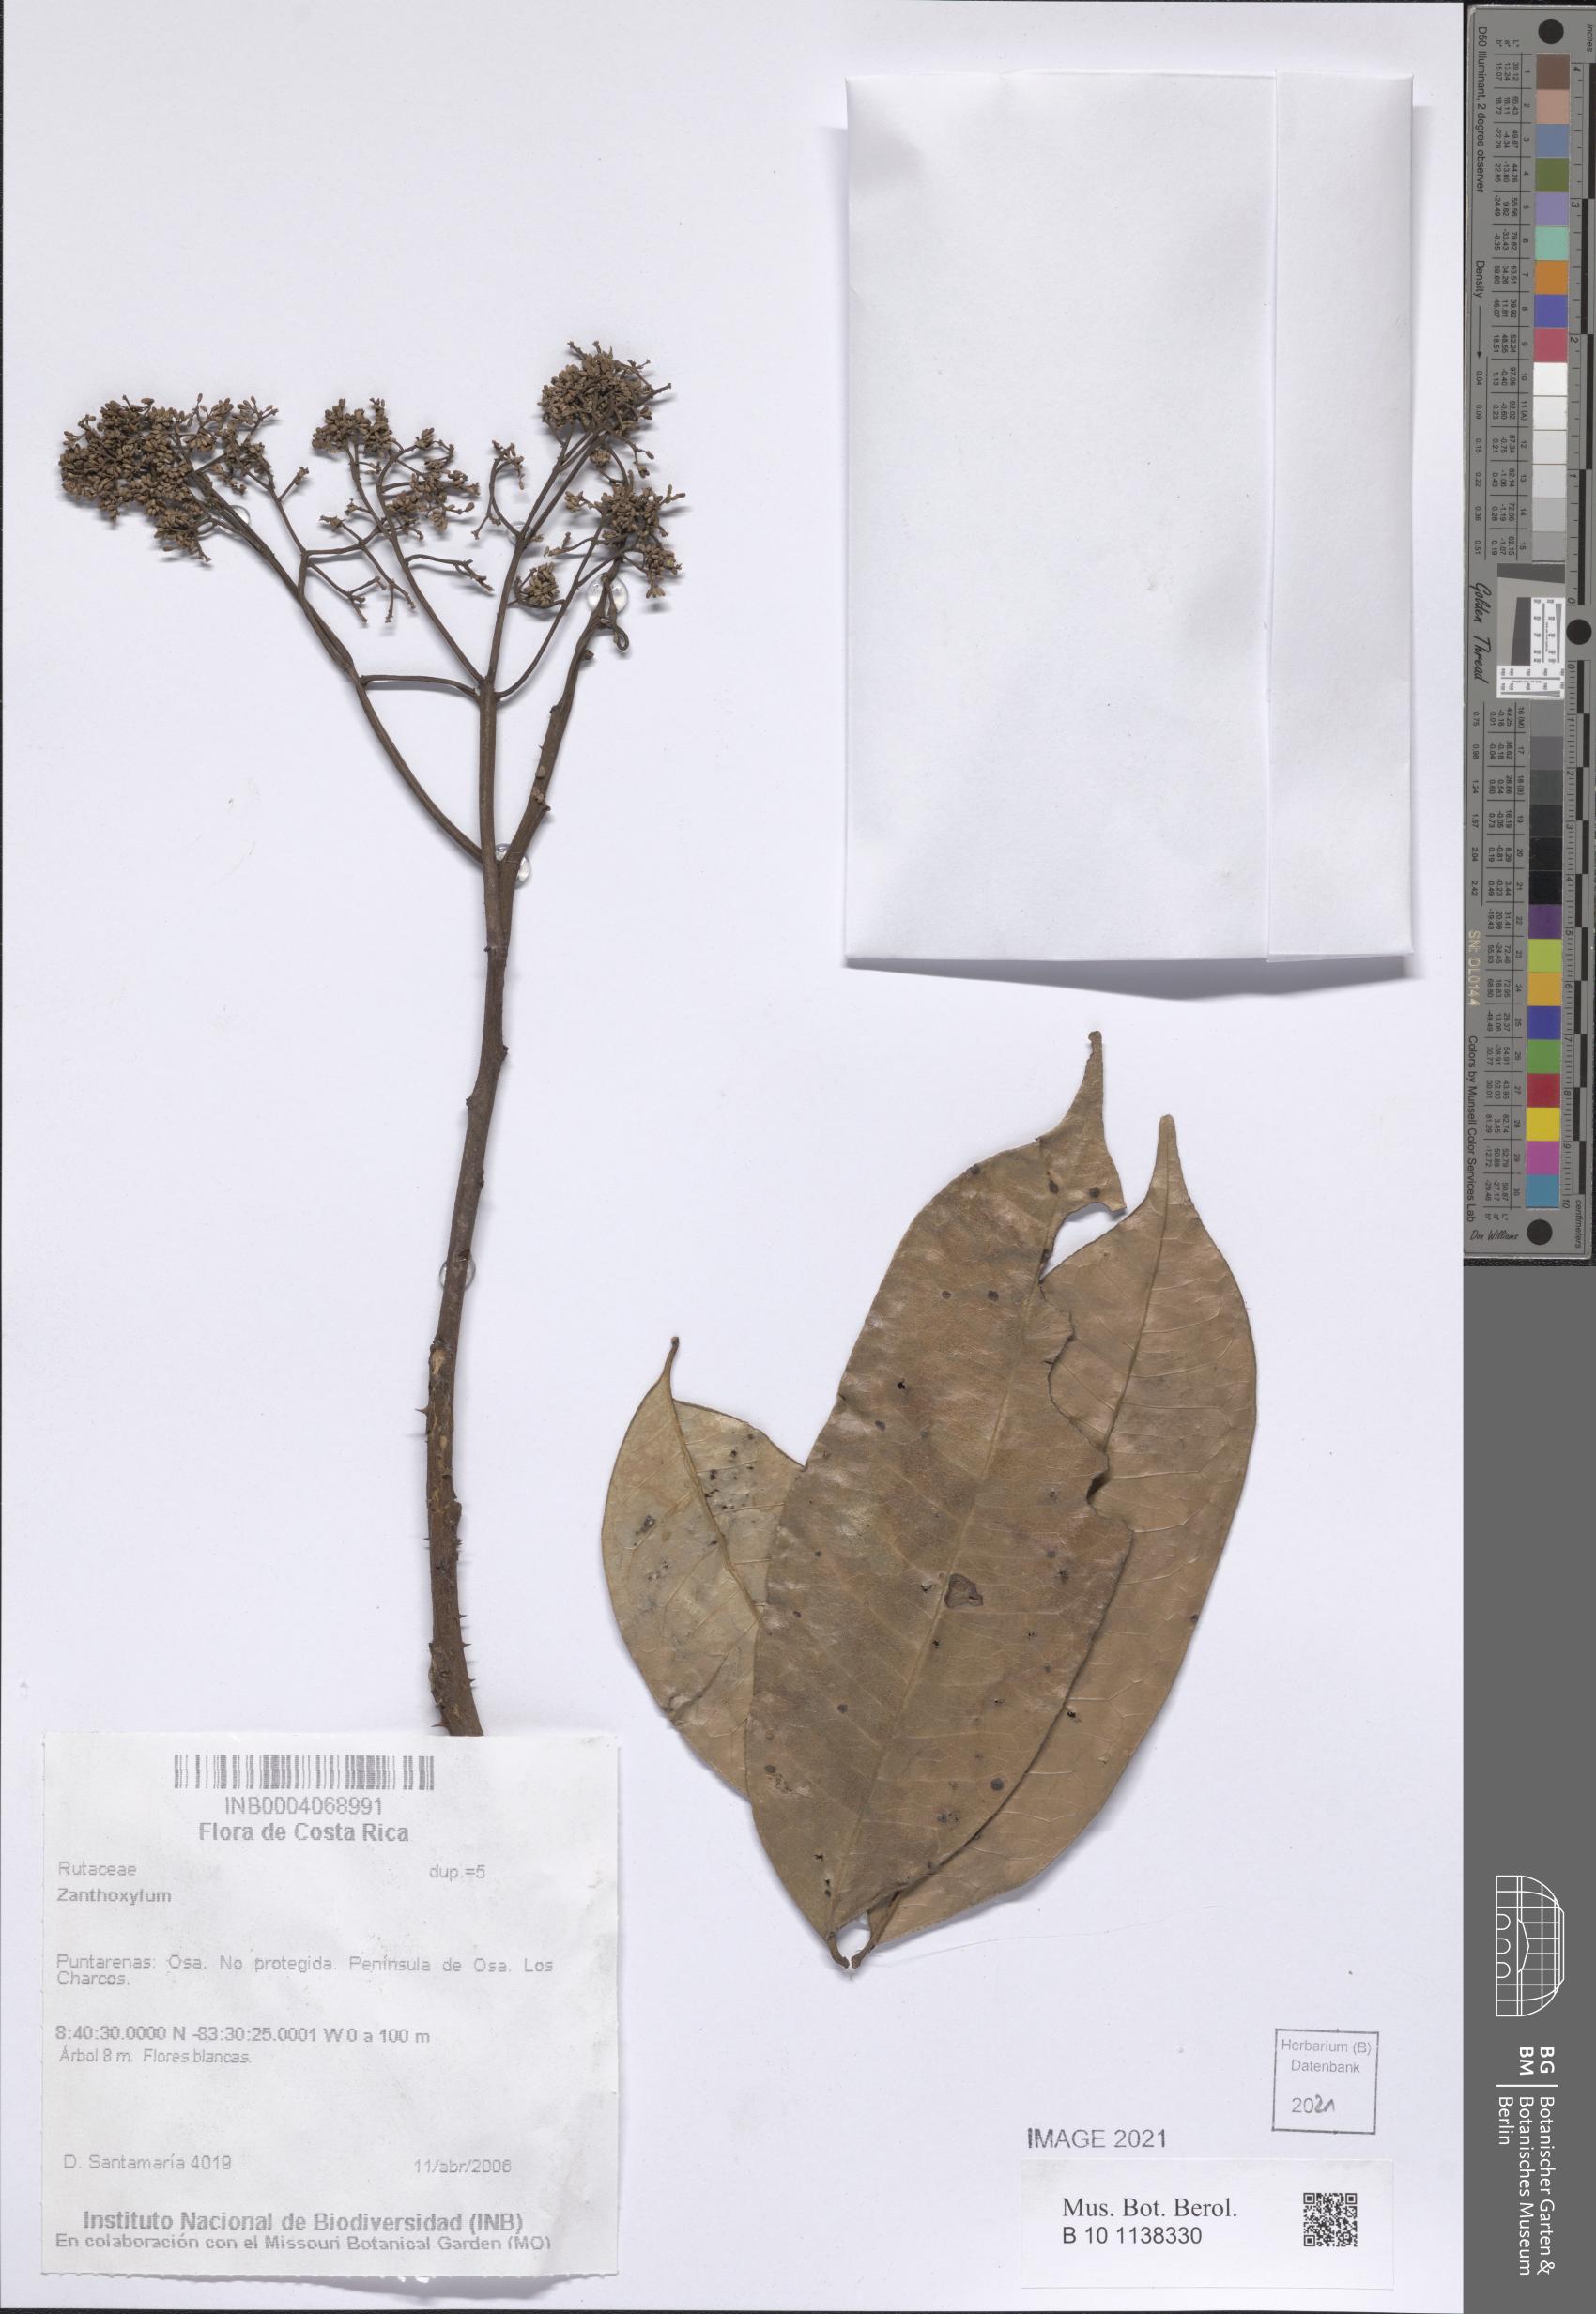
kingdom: Plantae
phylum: Tracheophyta
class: Magnoliopsida
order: Sapindales
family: Rutaceae
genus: Zanthoxylum
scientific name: Zanthoxylum
